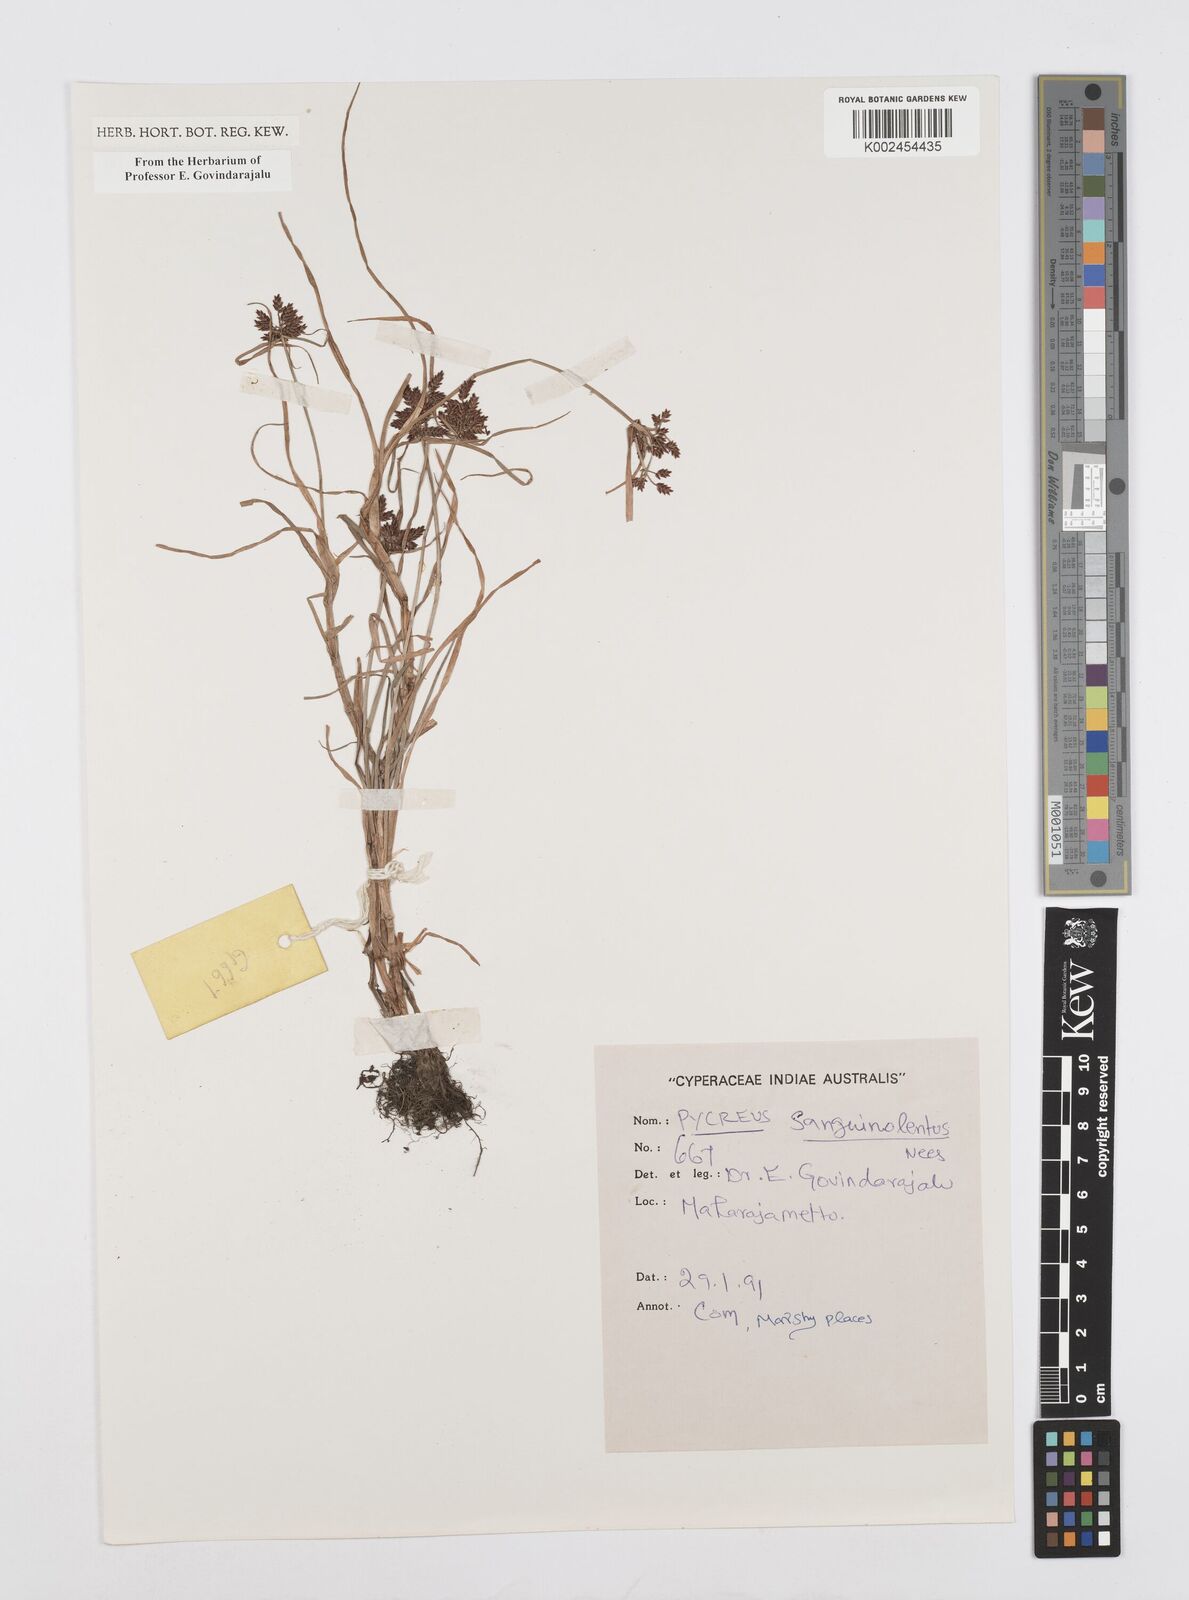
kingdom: Plantae
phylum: Tracheophyta
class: Liliopsida
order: Poales
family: Cyperaceae
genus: Cyperus
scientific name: Cyperus sanguinolentus
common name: Purpleglume flatsedge
